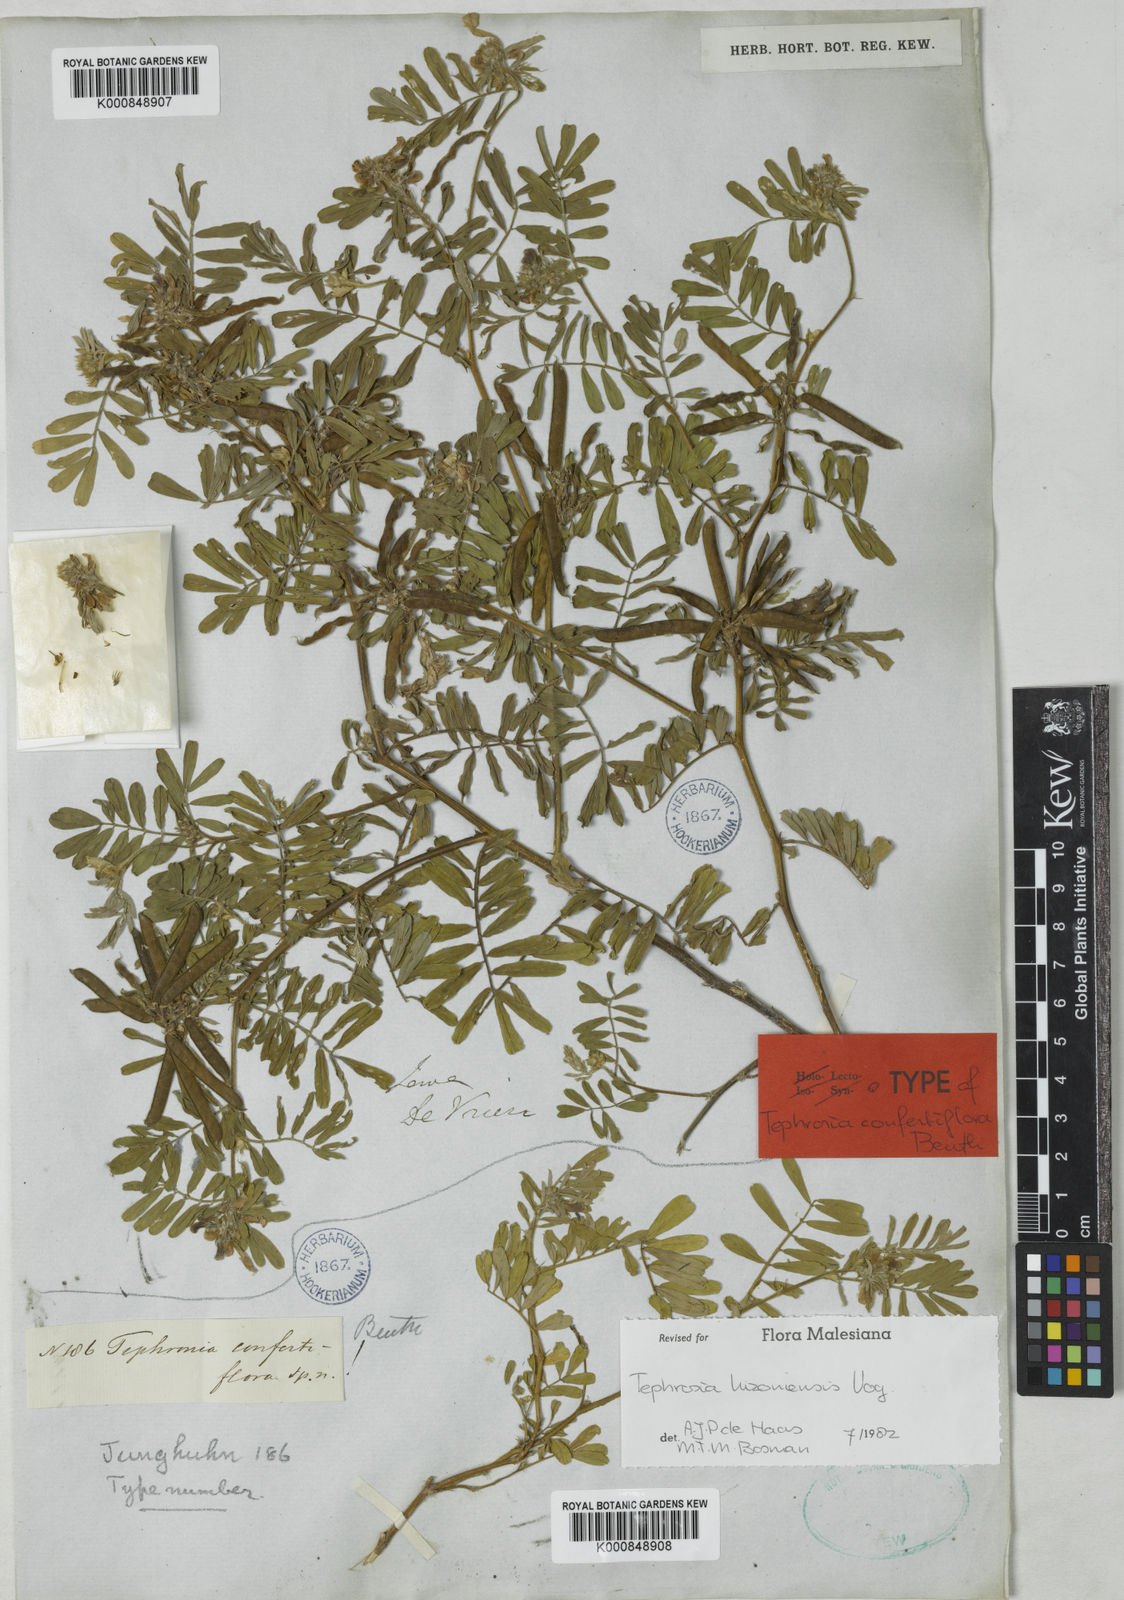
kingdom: Plantae
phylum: Tracheophyta
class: Magnoliopsida
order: Fabales
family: Fabaceae
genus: Tephrosia
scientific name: Tephrosia
